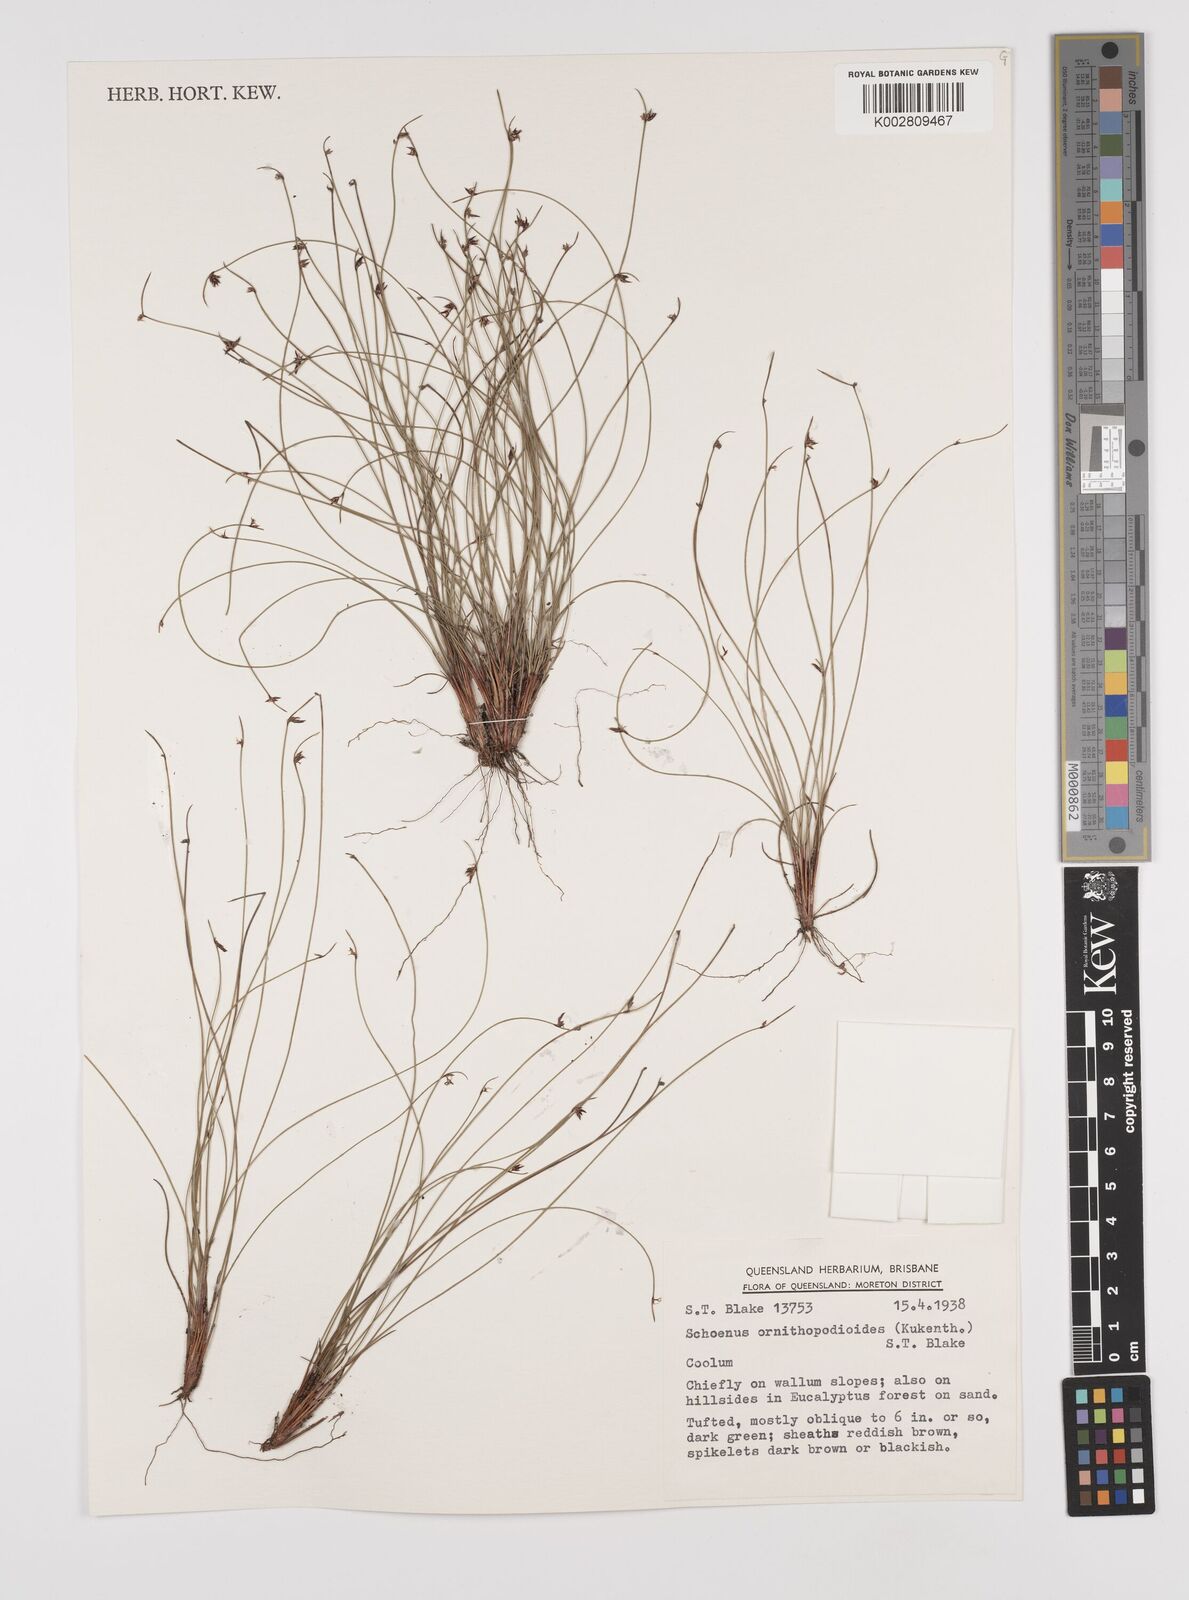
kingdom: Plantae
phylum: Tracheophyta
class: Liliopsida
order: Poales
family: Cyperaceae
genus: Schoenus
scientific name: Schoenus ornithopodioides
